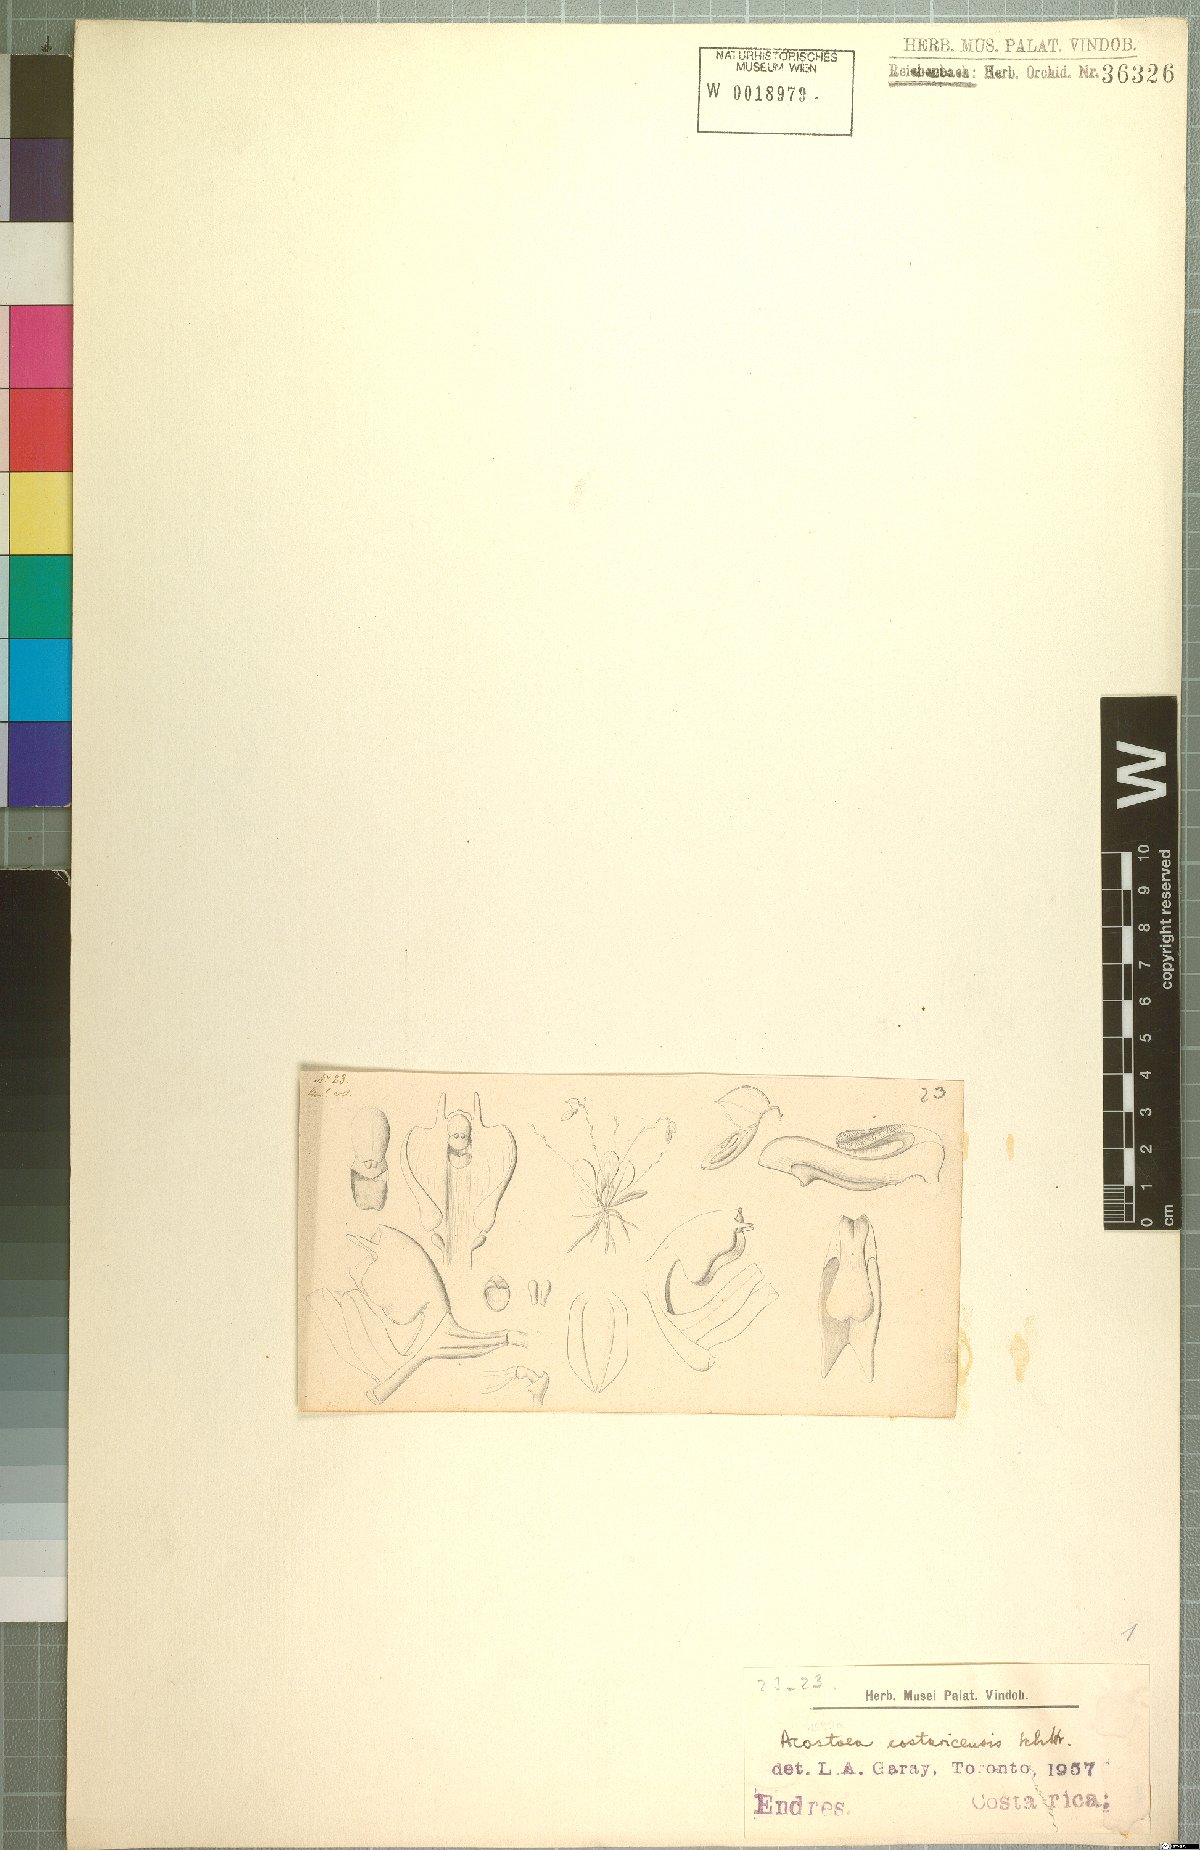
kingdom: Plantae
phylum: Tracheophyta
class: Liliopsida
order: Asparagales
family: Orchidaceae
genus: Specklinia
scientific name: Specklinia colombiana
